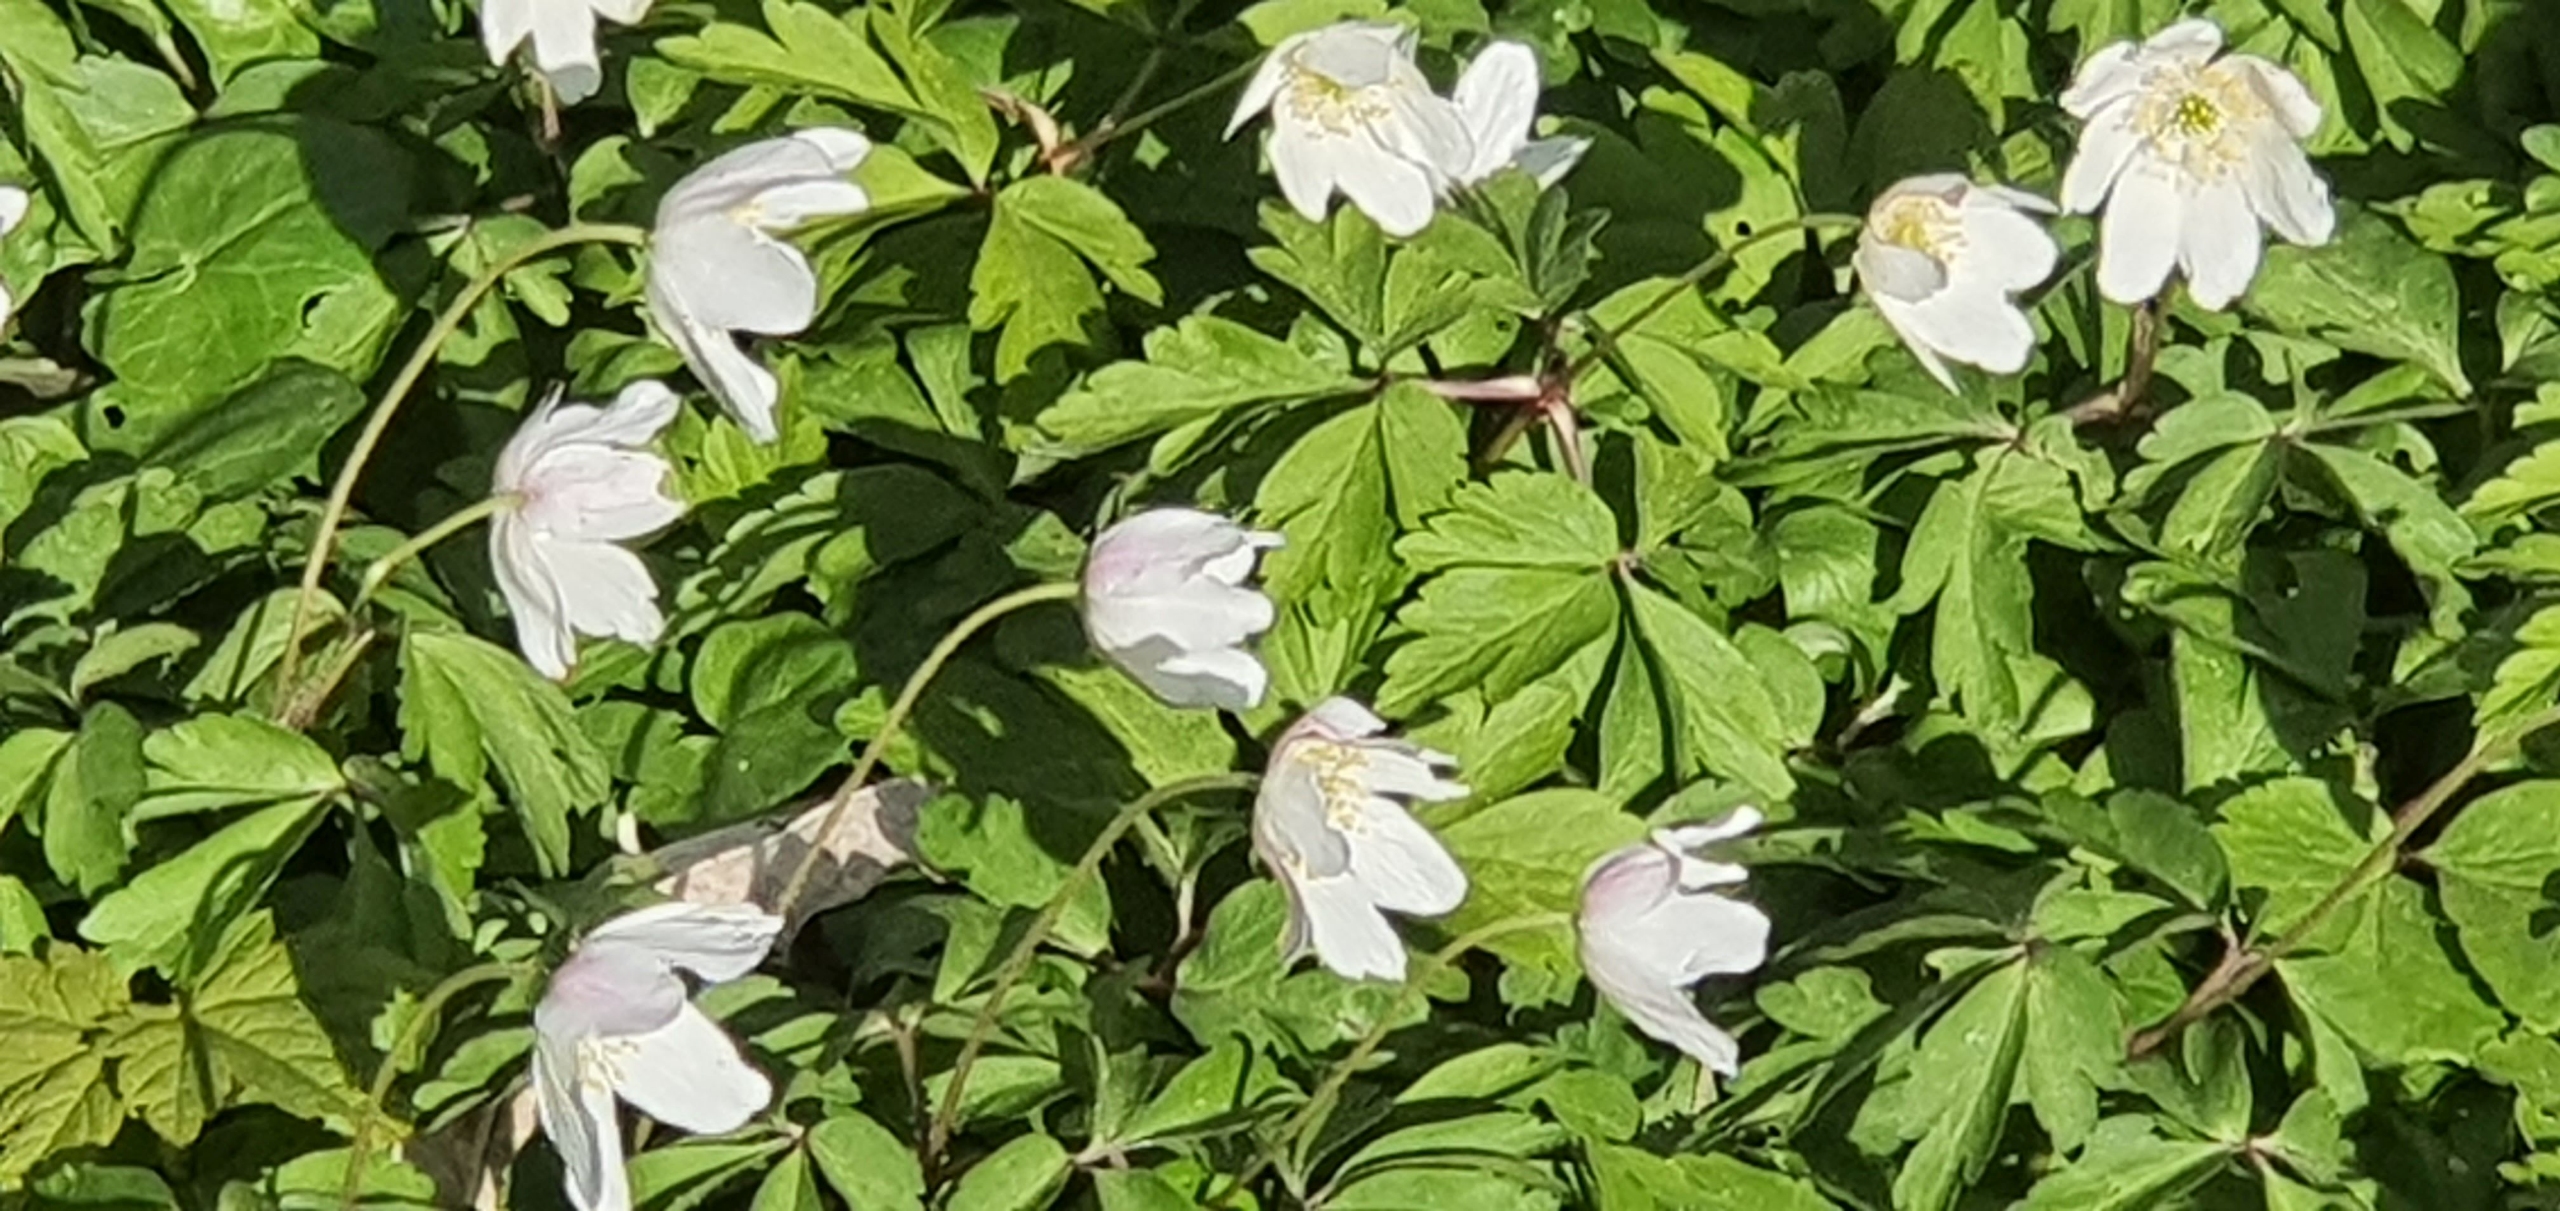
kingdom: Plantae
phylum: Tracheophyta
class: Magnoliopsida
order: Ranunculales
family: Ranunculaceae
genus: Anemone
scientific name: Anemone nemorosa
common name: Hvid anemone
